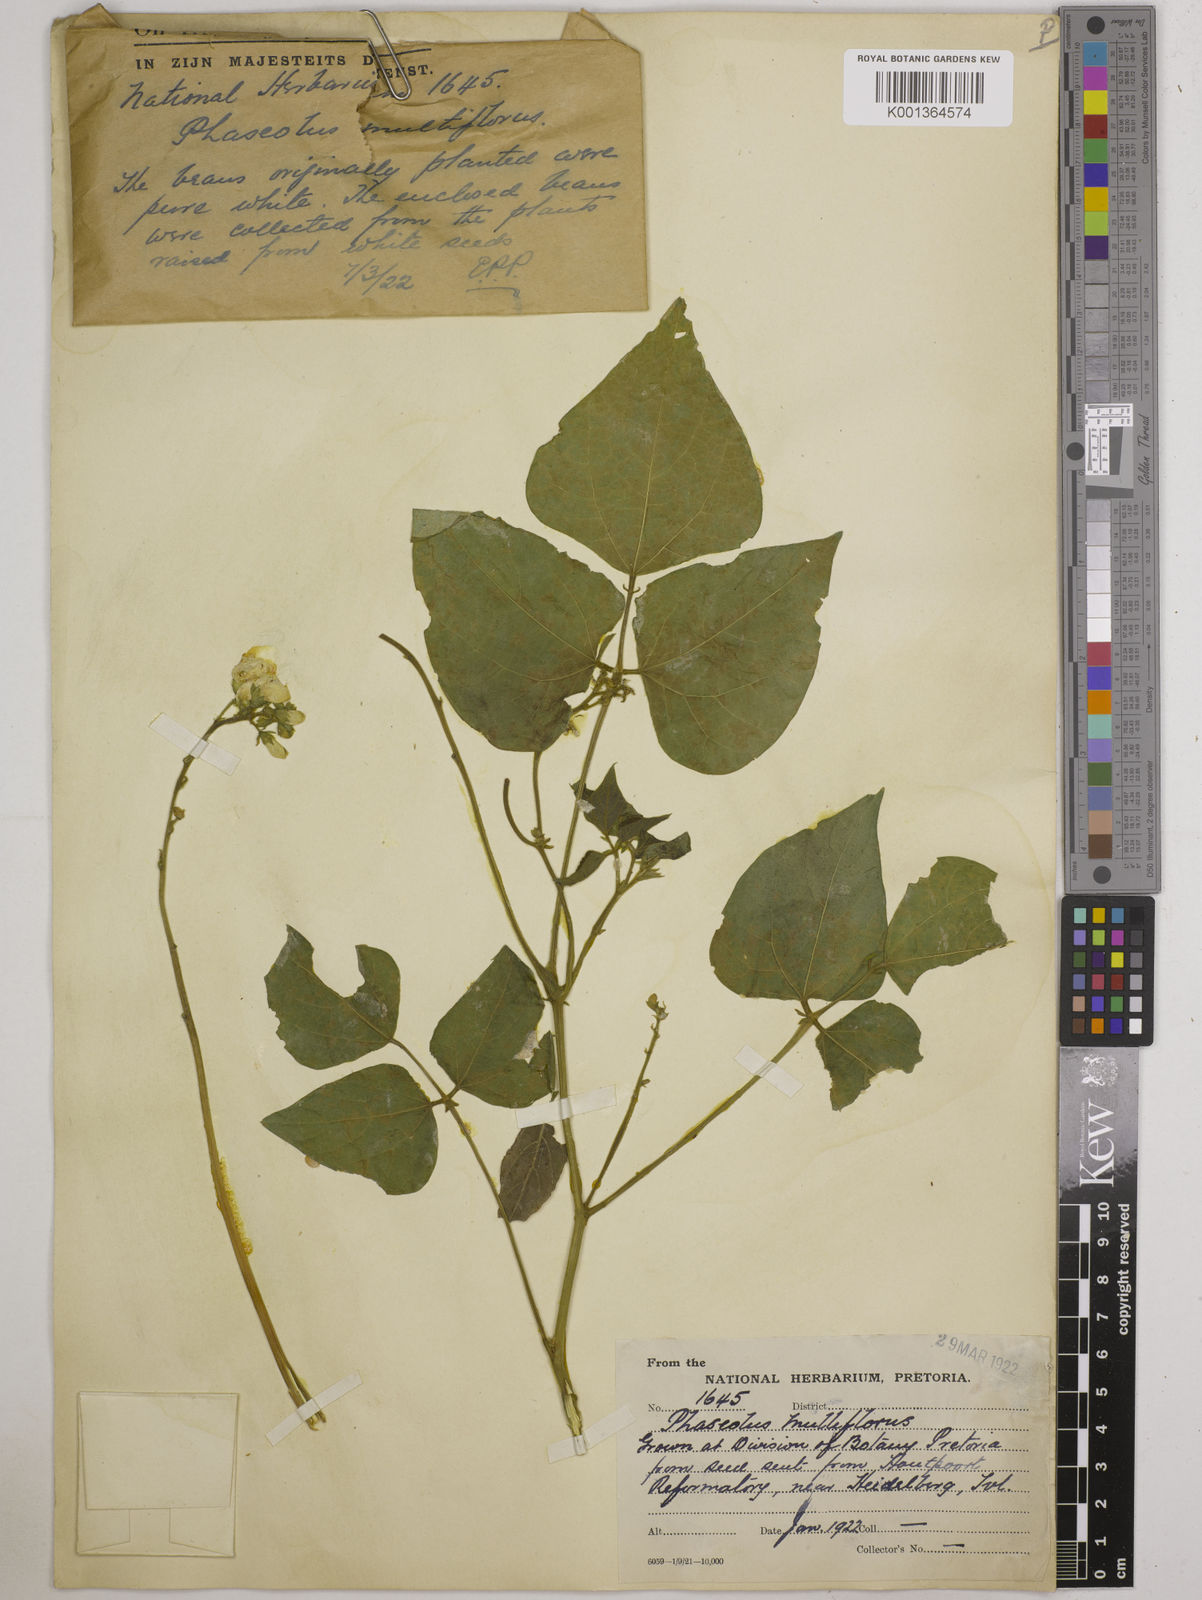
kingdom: Plantae
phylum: Tracheophyta
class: Magnoliopsida
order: Fabales
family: Fabaceae
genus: Phaseolus
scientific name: Phaseolus
